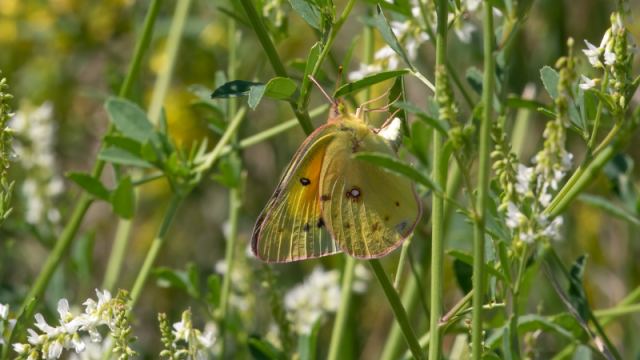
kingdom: Animalia
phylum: Arthropoda
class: Insecta
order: Lepidoptera
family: Pieridae
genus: Colias
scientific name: Colias eurytheme
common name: Orange Sulphur
